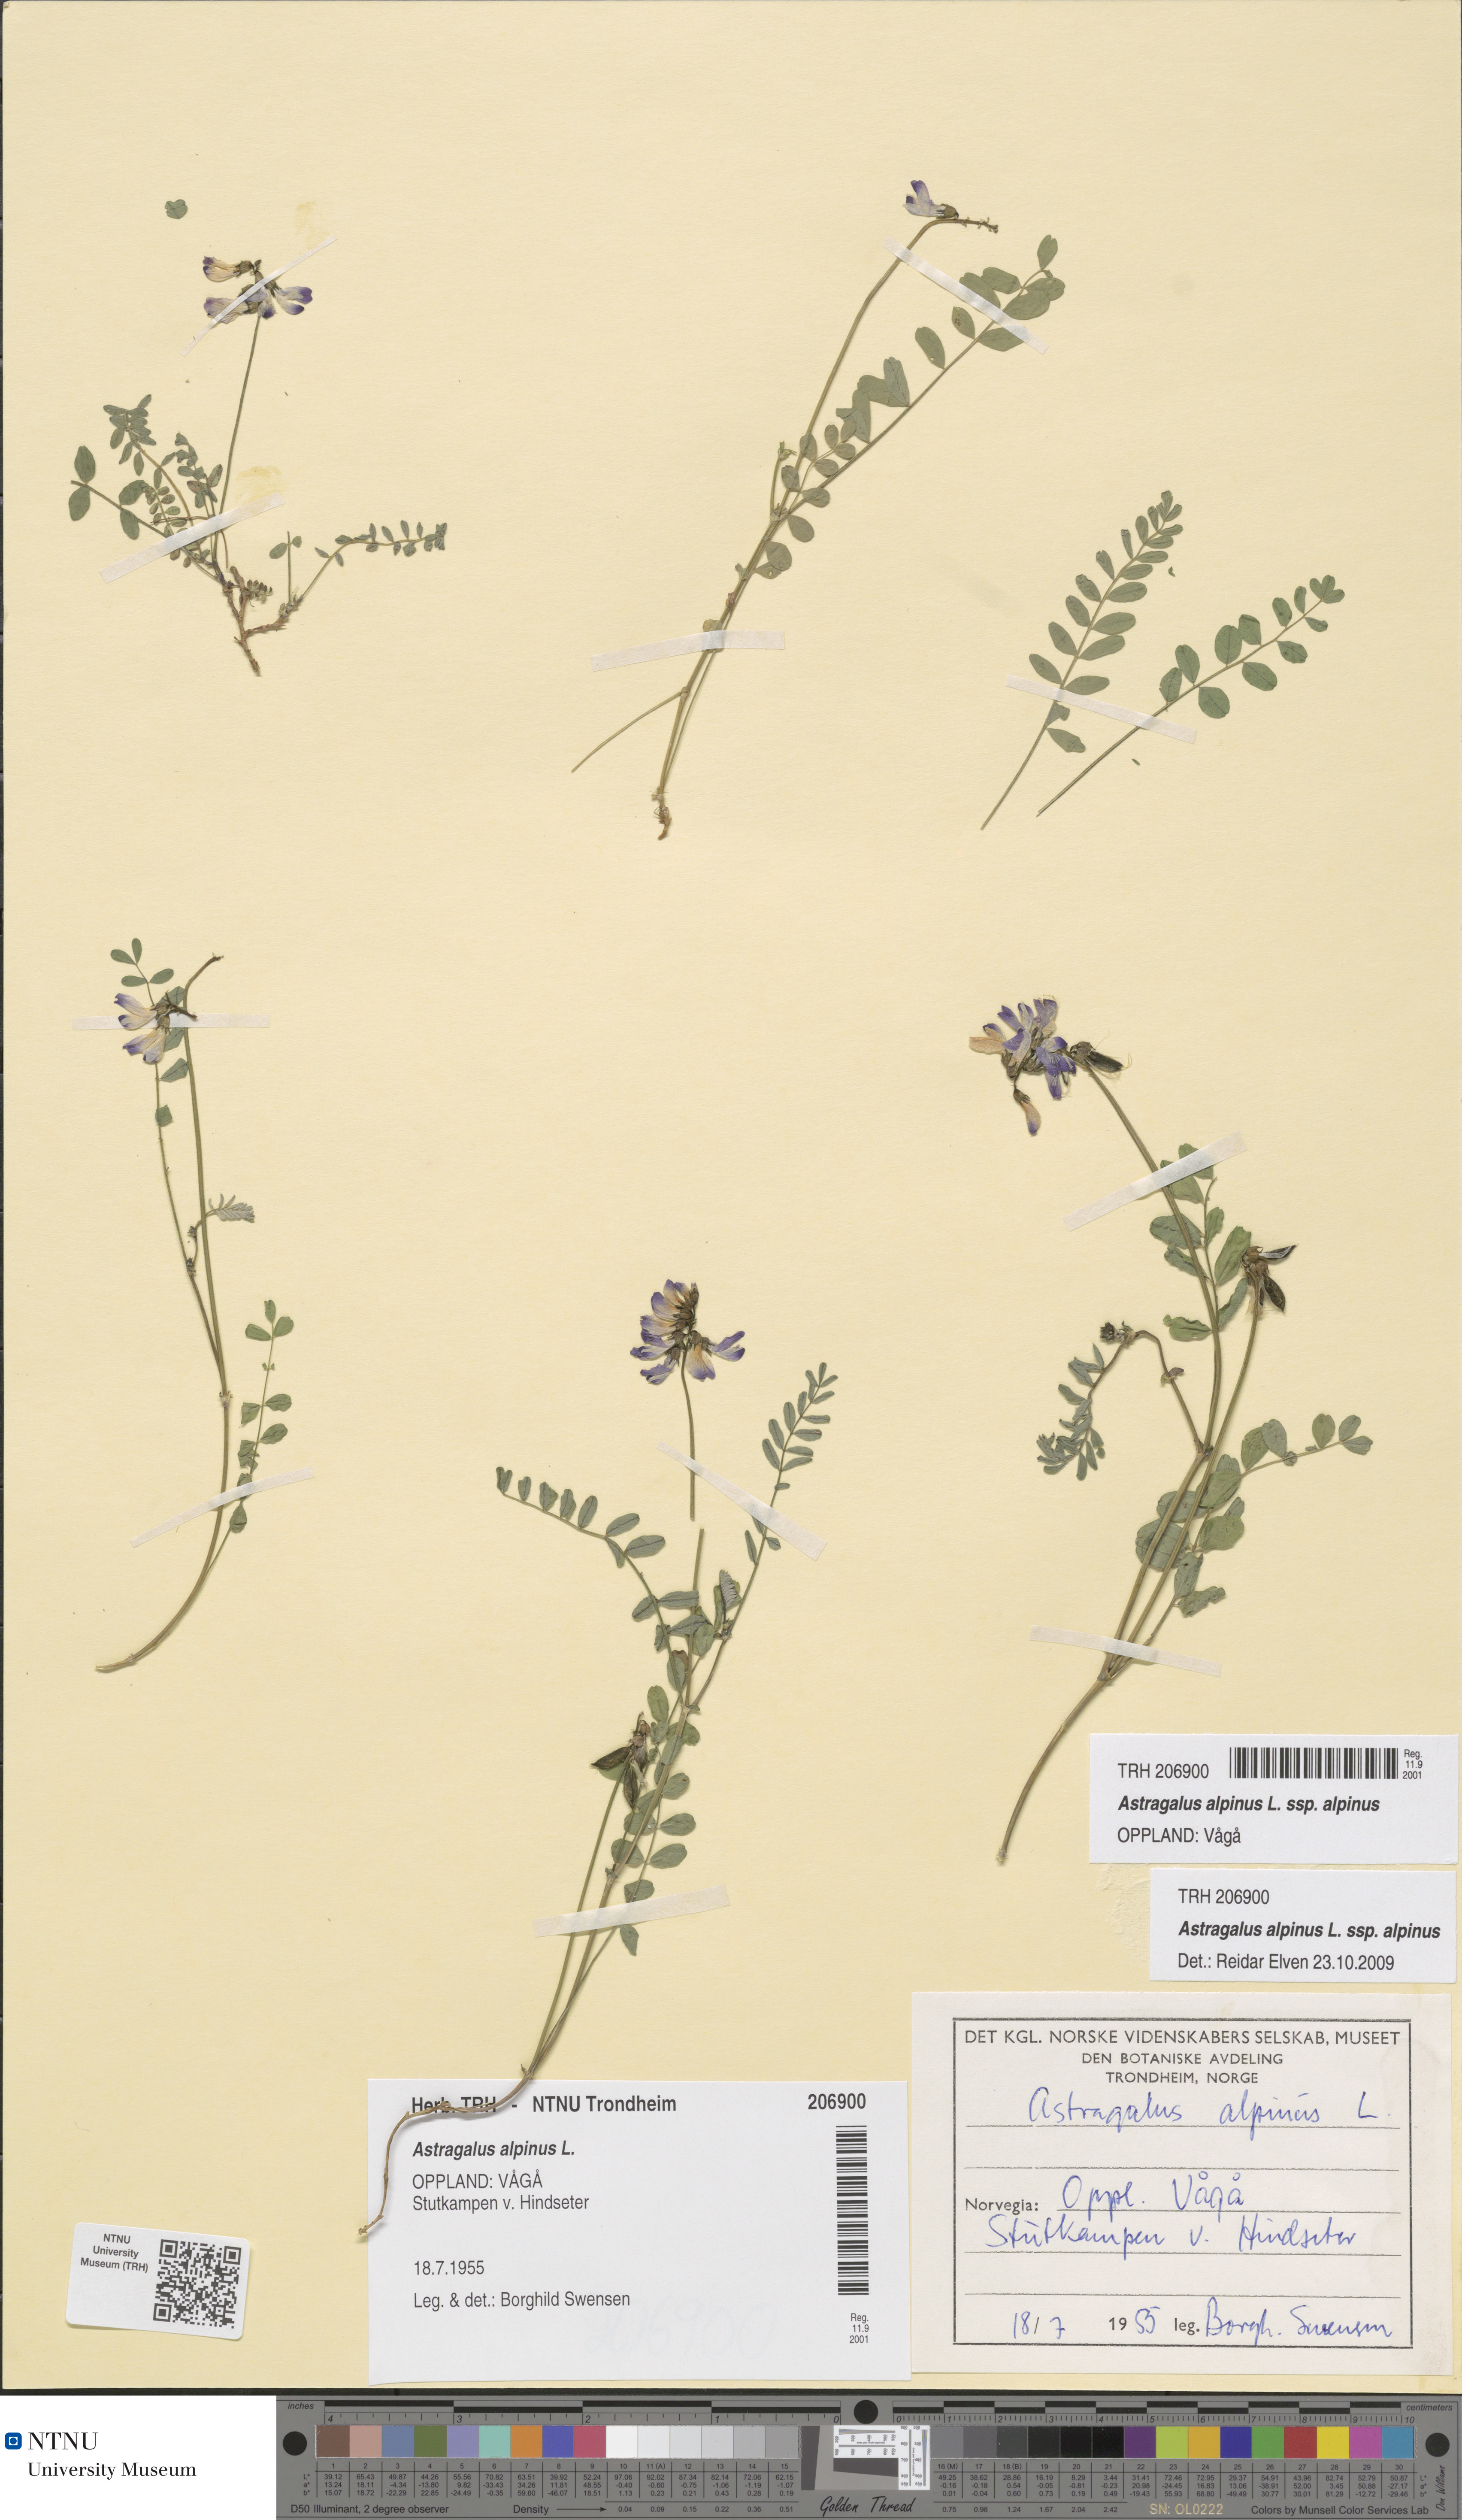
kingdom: Plantae
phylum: Tracheophyta
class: Magnoliopsida
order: Fabales
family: Fabaceae
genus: Astragalus
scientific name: Astragalus alpinus
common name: Alpine milk-vetch
